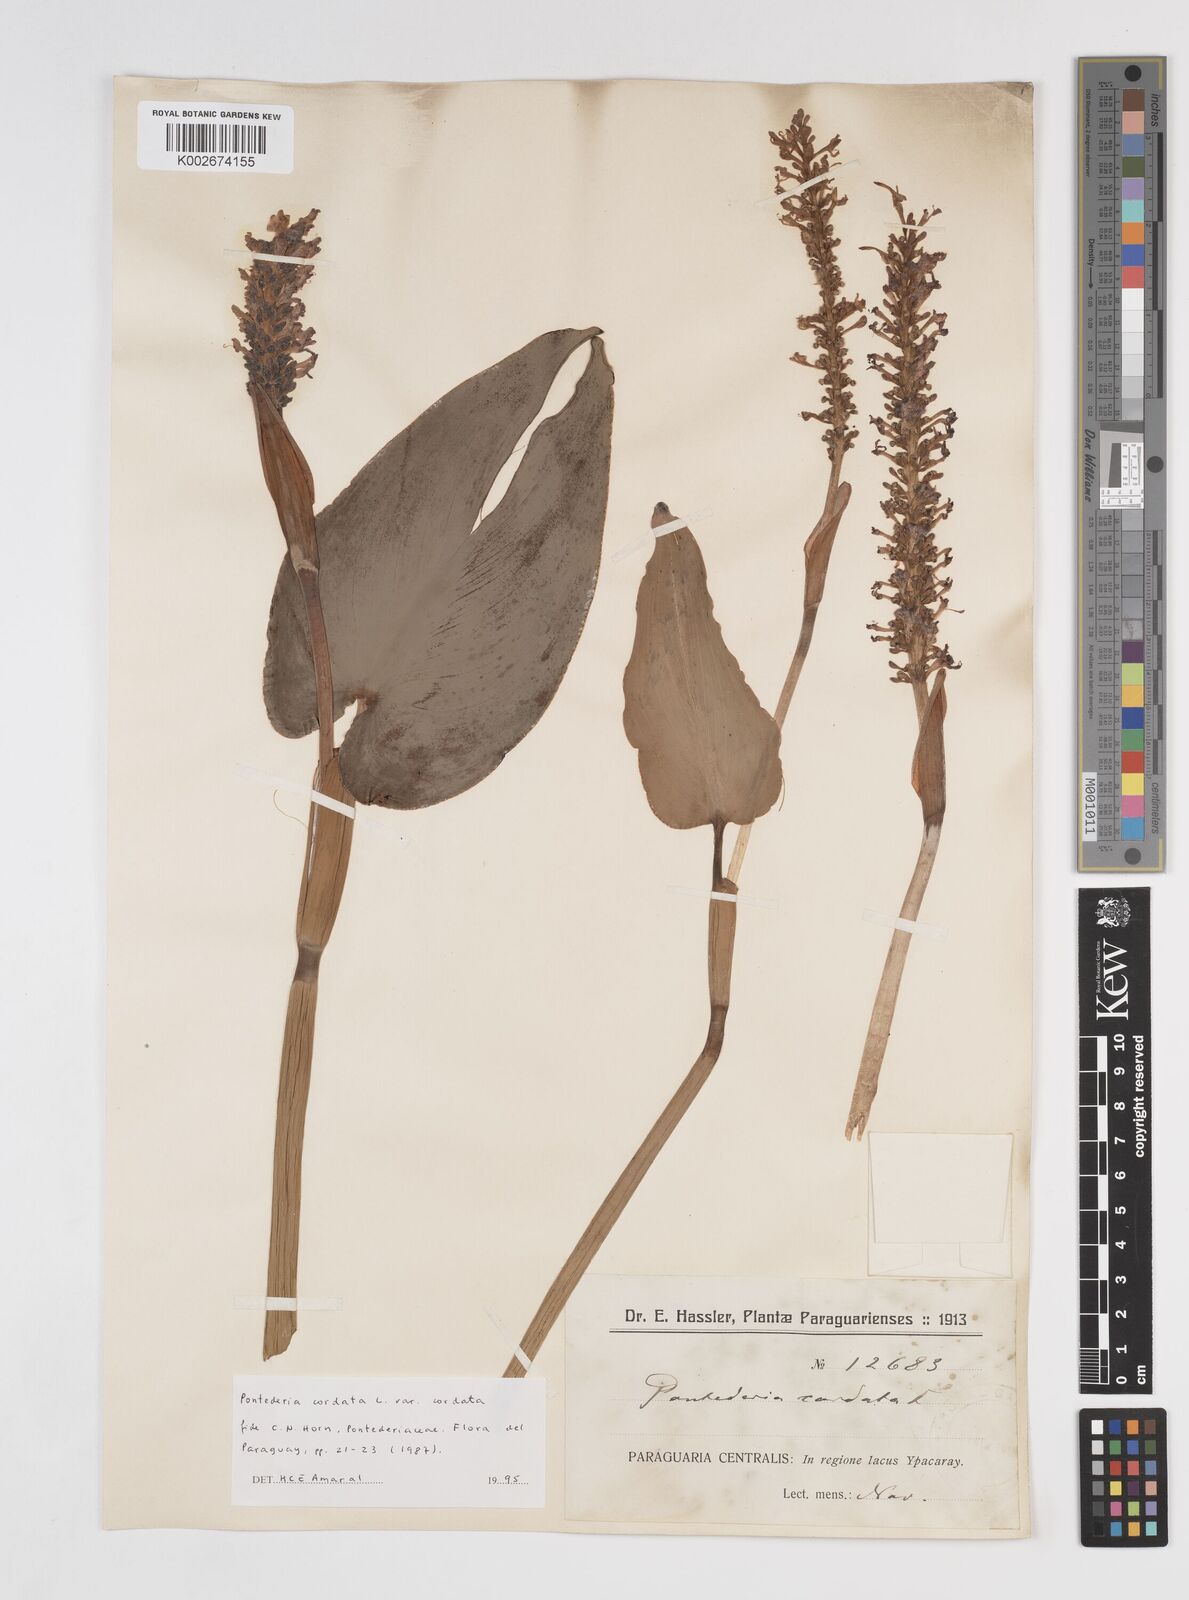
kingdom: Plantae
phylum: Tracheophyta
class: Liliopsida
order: Commelinales
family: Pontederiaceae
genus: Pontederia
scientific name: Pontederia
